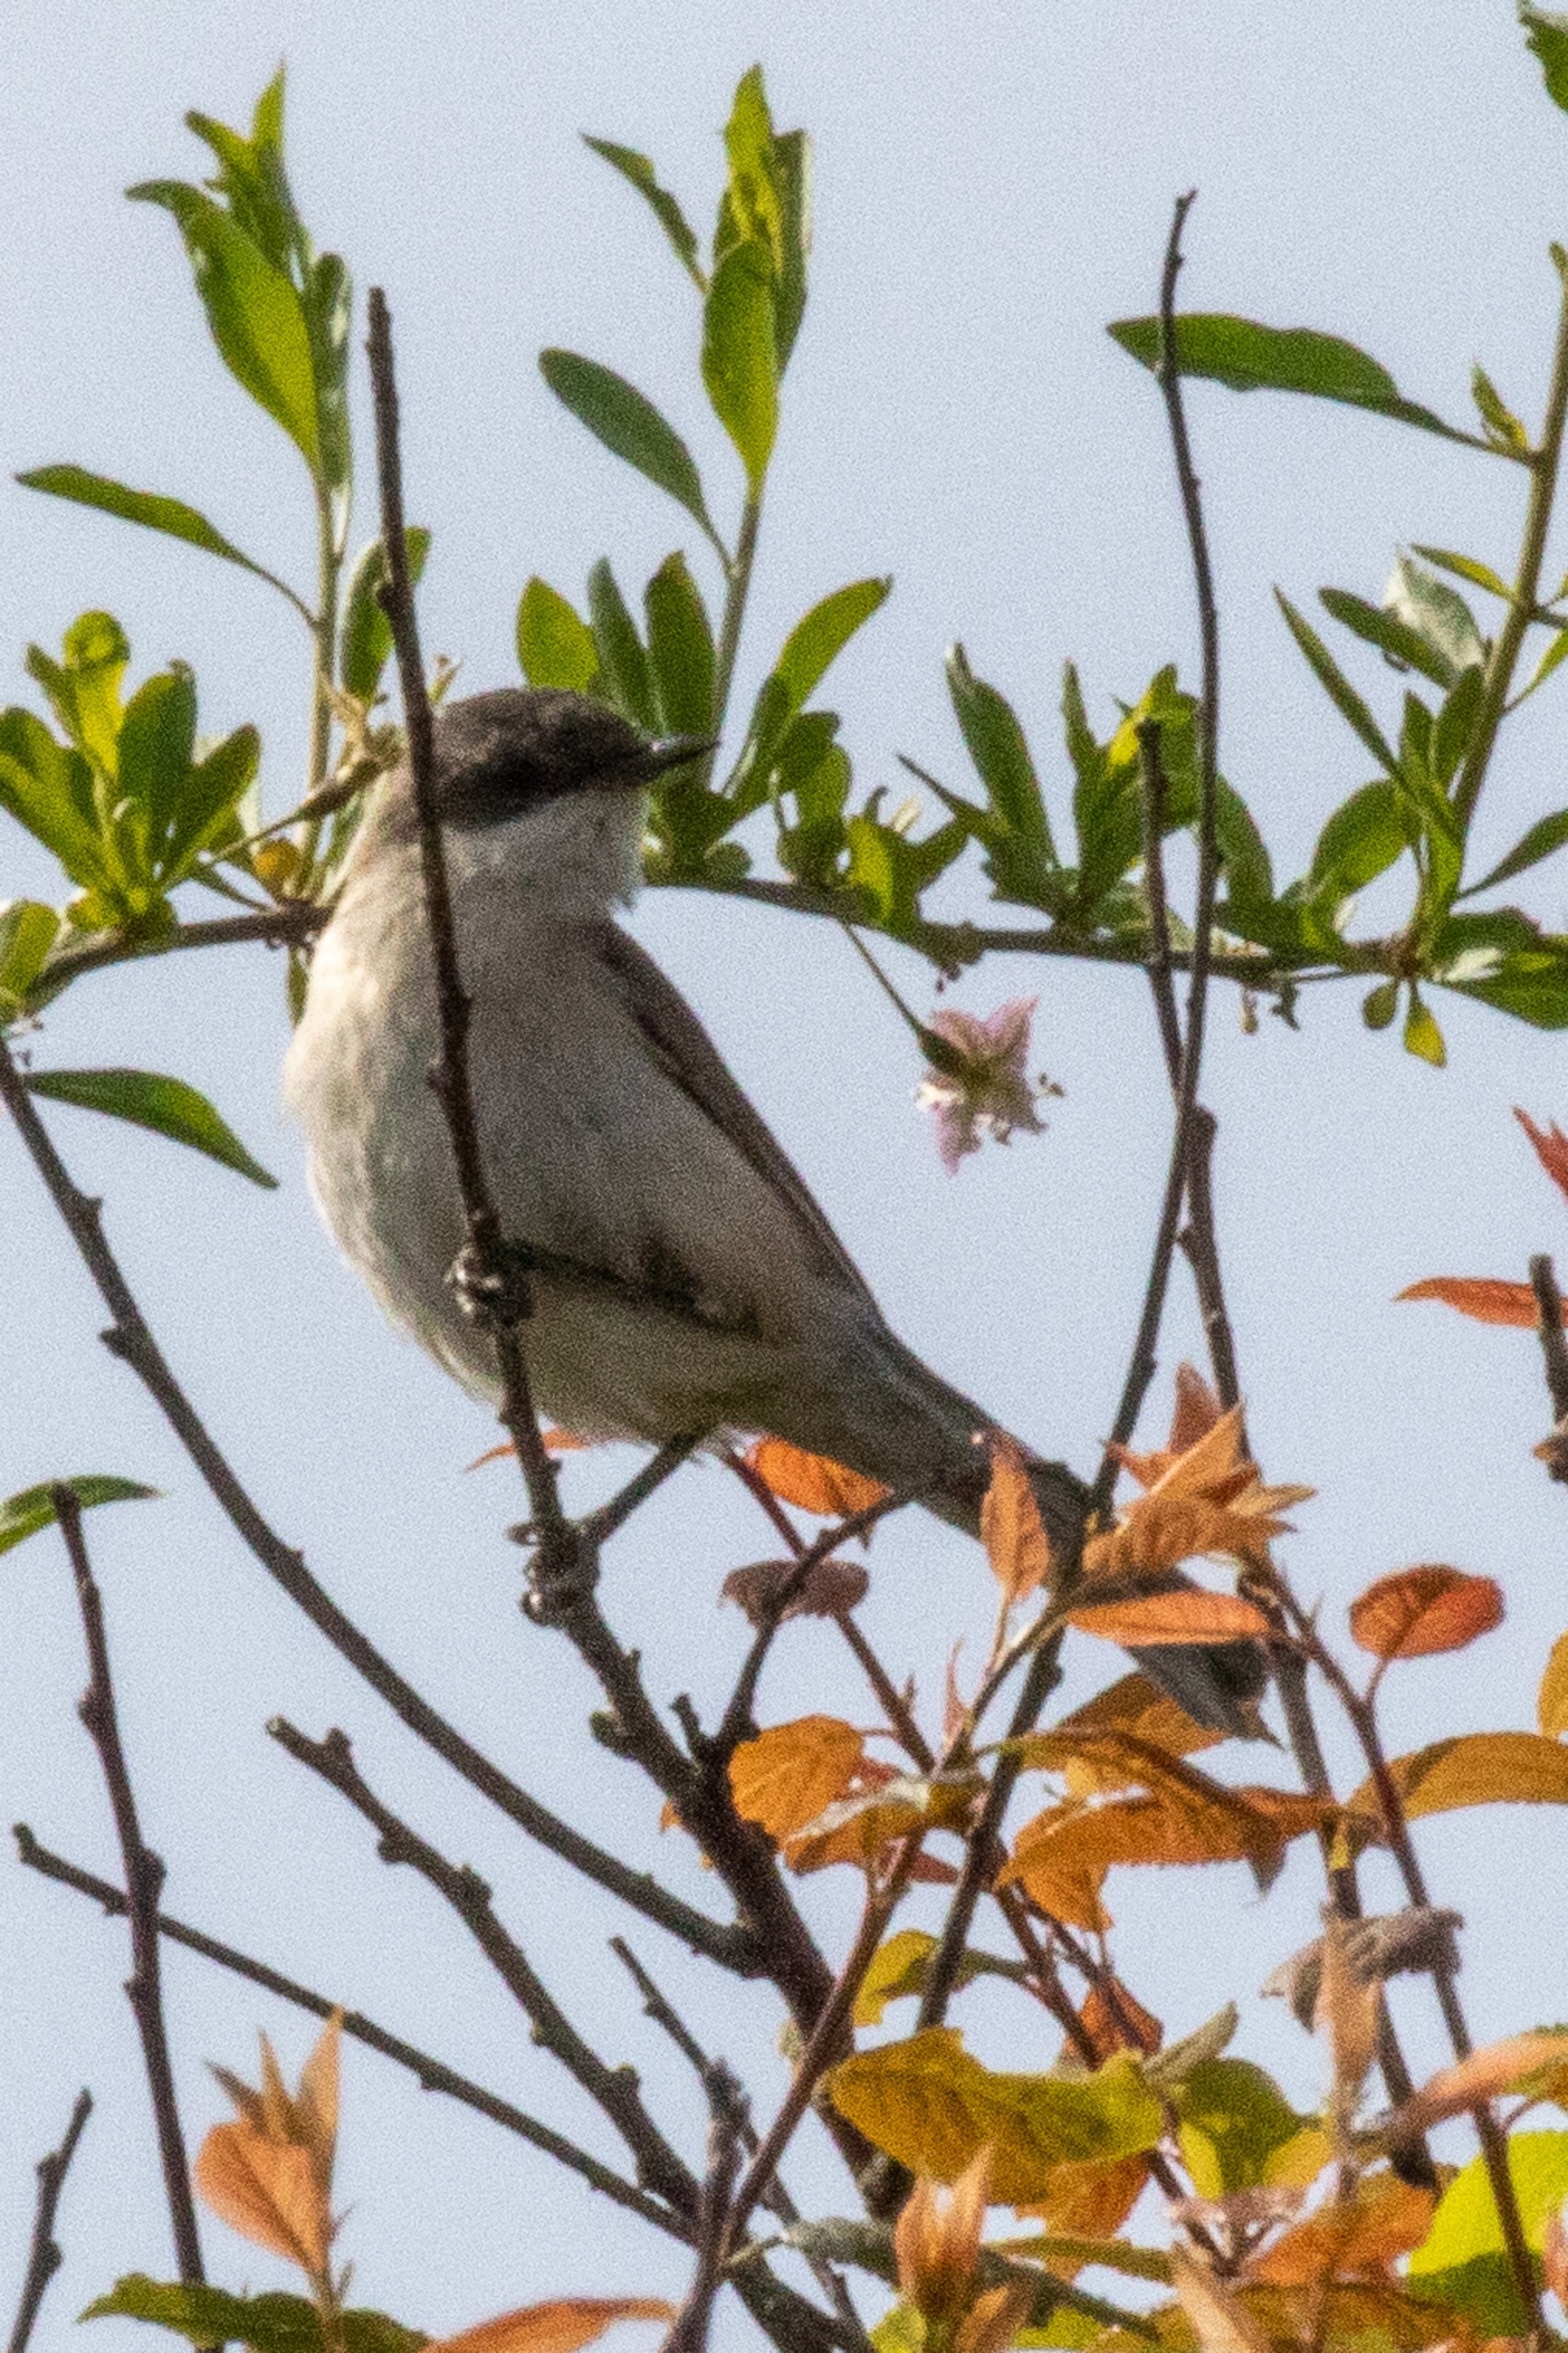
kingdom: Animalia
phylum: Chordata
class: Aves
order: Passeriformes
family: Sylviidae
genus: Sylvia
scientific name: Sylvia curruca
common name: Gærdesanger
